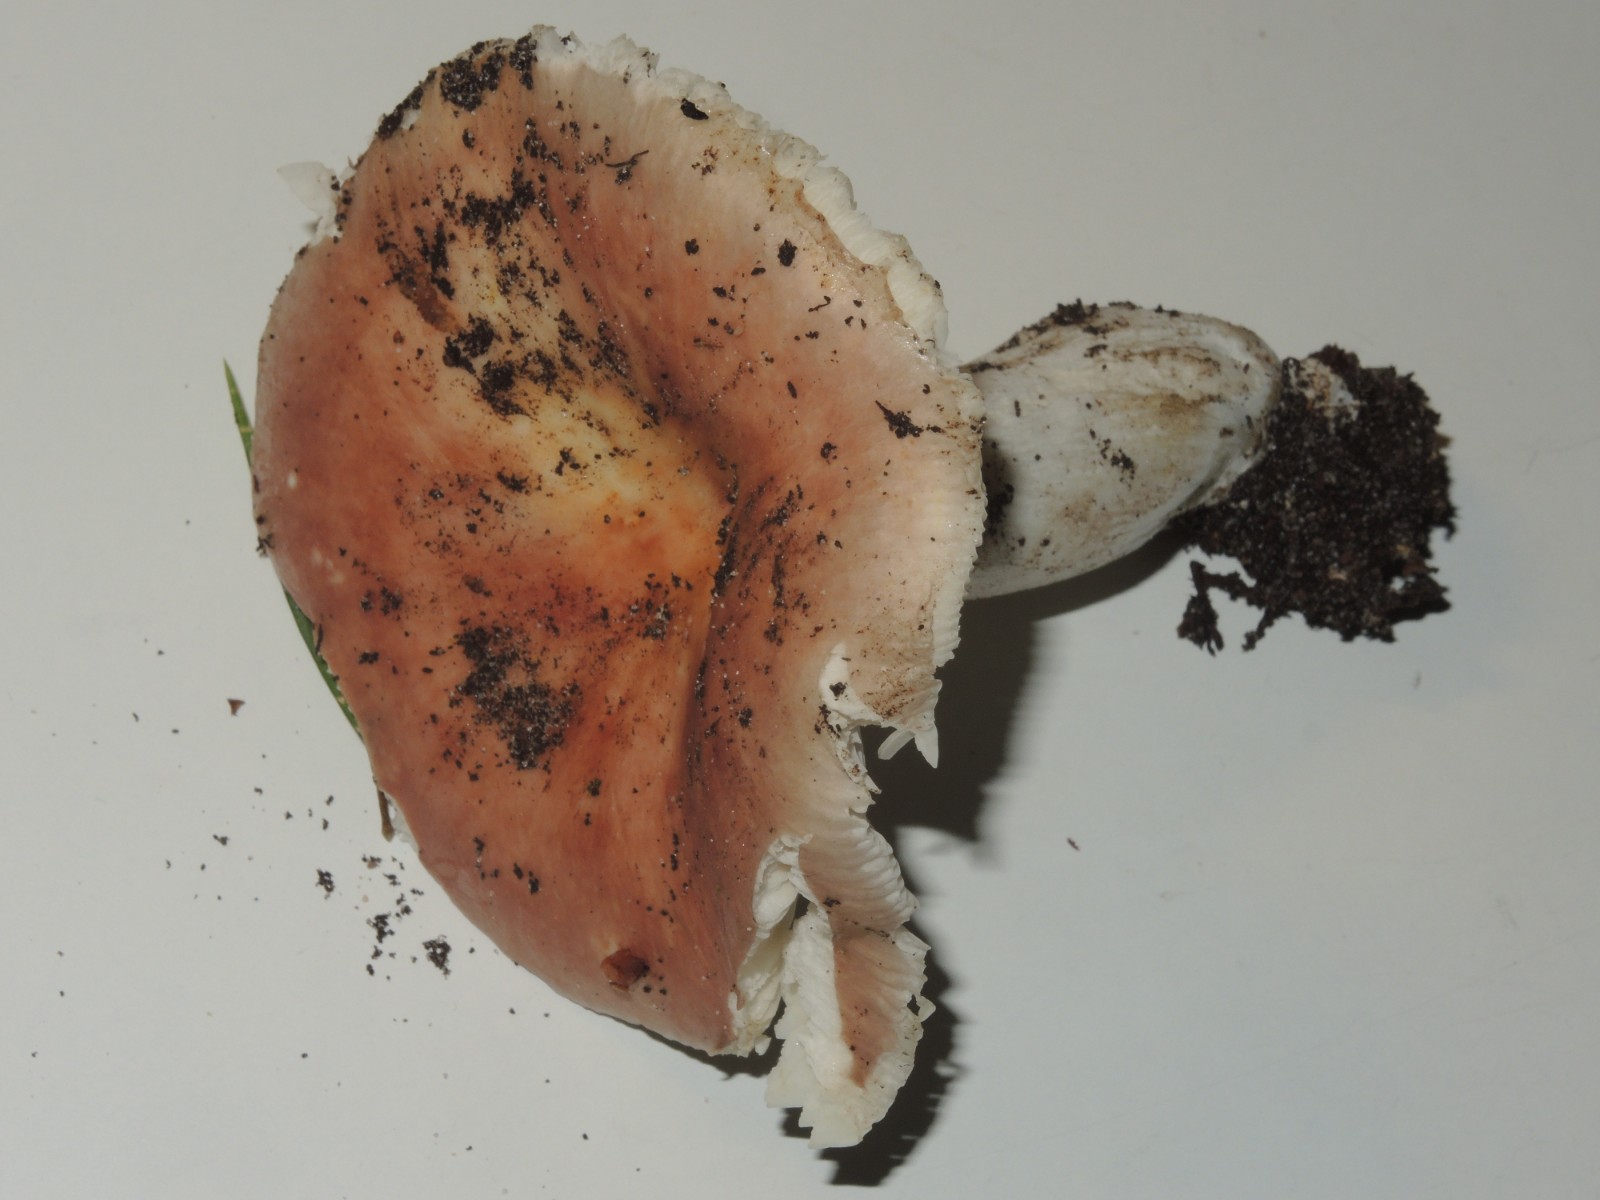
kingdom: Fungi
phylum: Basidiomycota
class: Agaricomycetes
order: Russulales
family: Russulaceae
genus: Russula
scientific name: Russula aurora
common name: rosa skørhat
